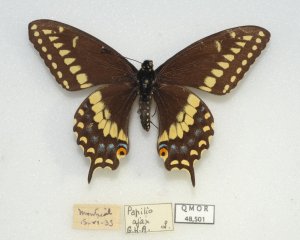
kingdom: Animalia
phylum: Arthropoda
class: Insecta
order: Lepidoptera
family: Papilionidae
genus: Papilio
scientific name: Papilio polyxenes
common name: Black Swallowtail
